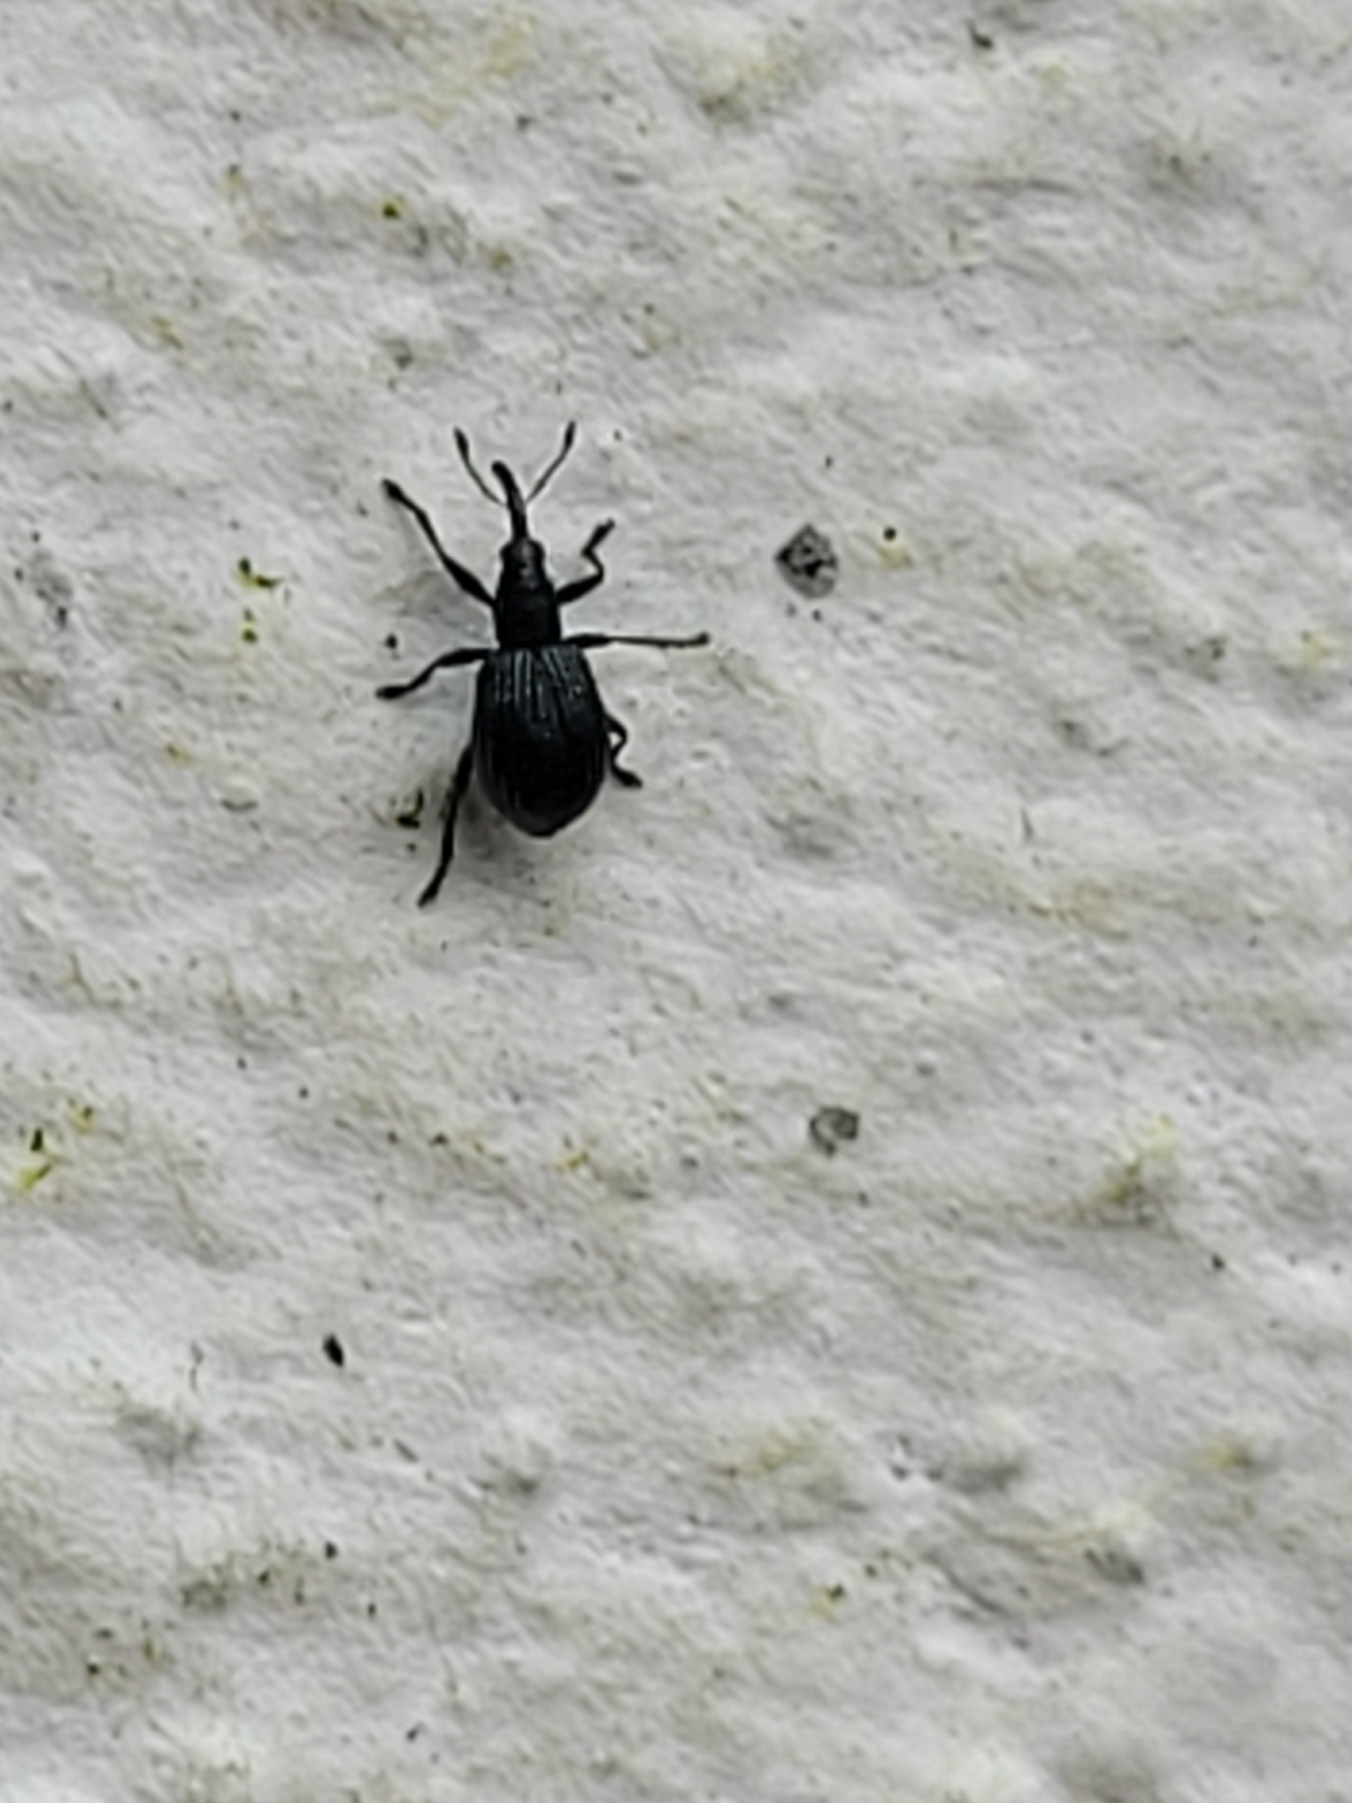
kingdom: Animalia
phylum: Arthropoda
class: Insecta
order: Coleoptera
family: Apionidae
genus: Ischnopterapion
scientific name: Ischnopterapion virens
